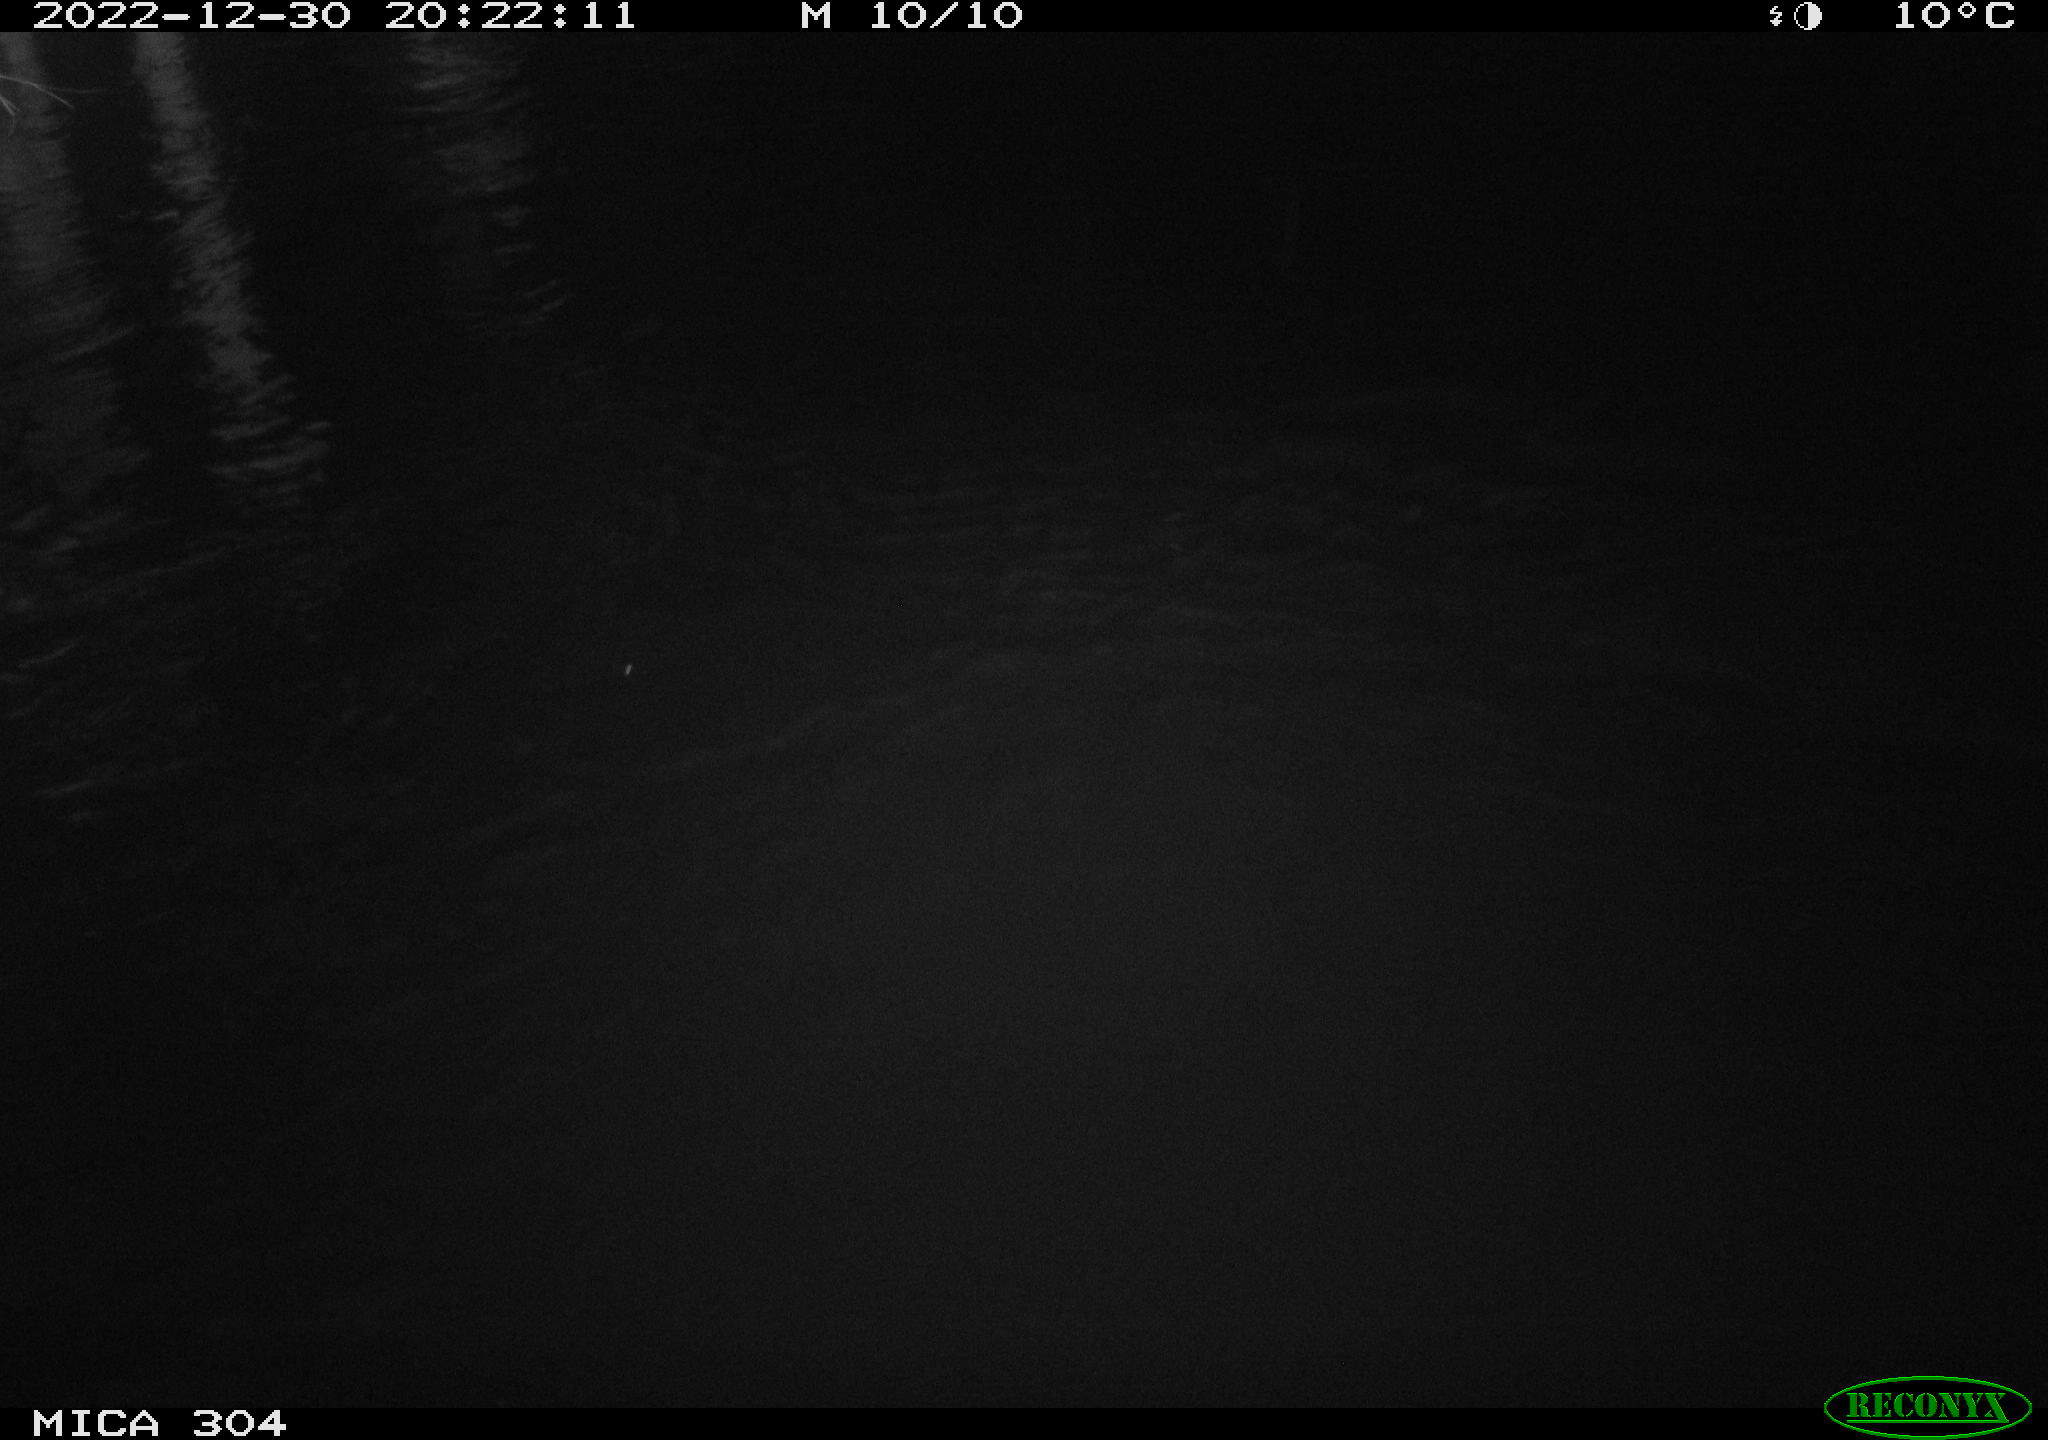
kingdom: Animalia
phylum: Chordata
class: Mammalia
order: Rodentia
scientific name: Rodentia
